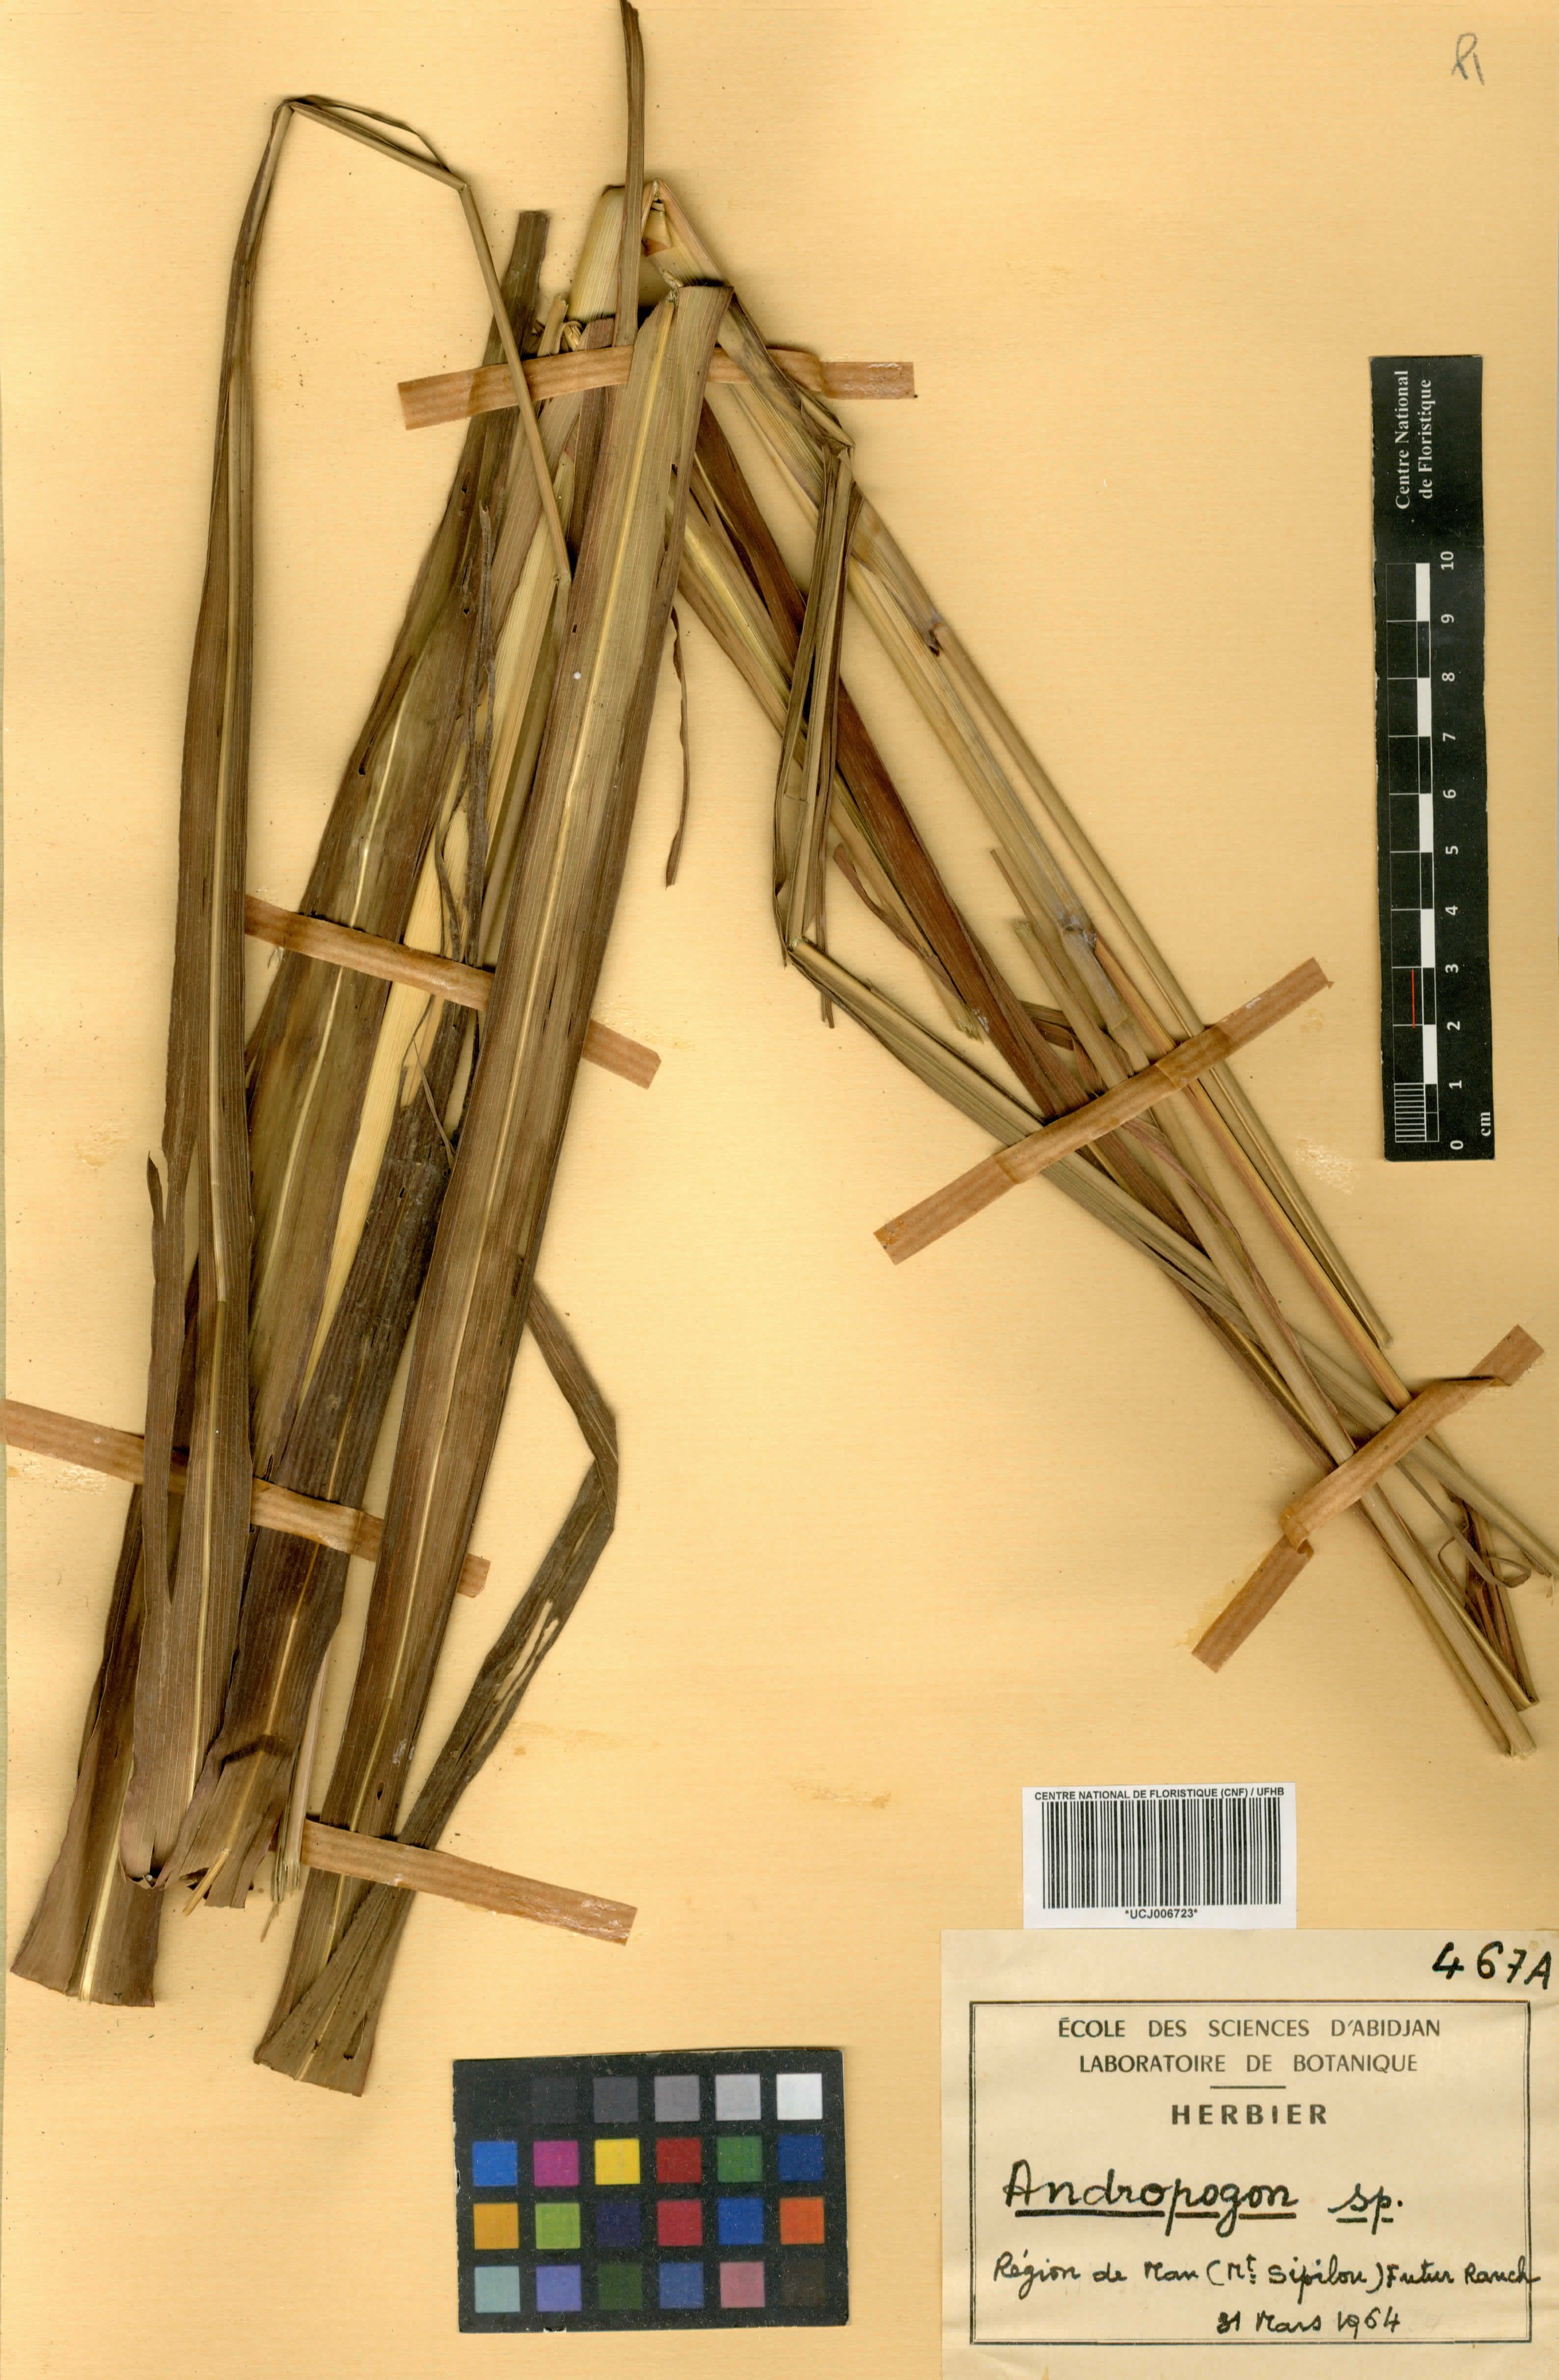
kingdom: Plantae
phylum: Tracheophyta
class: Liliopsida
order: Poales
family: Poaceae
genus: Andropogon
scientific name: Andropogon schirensis
